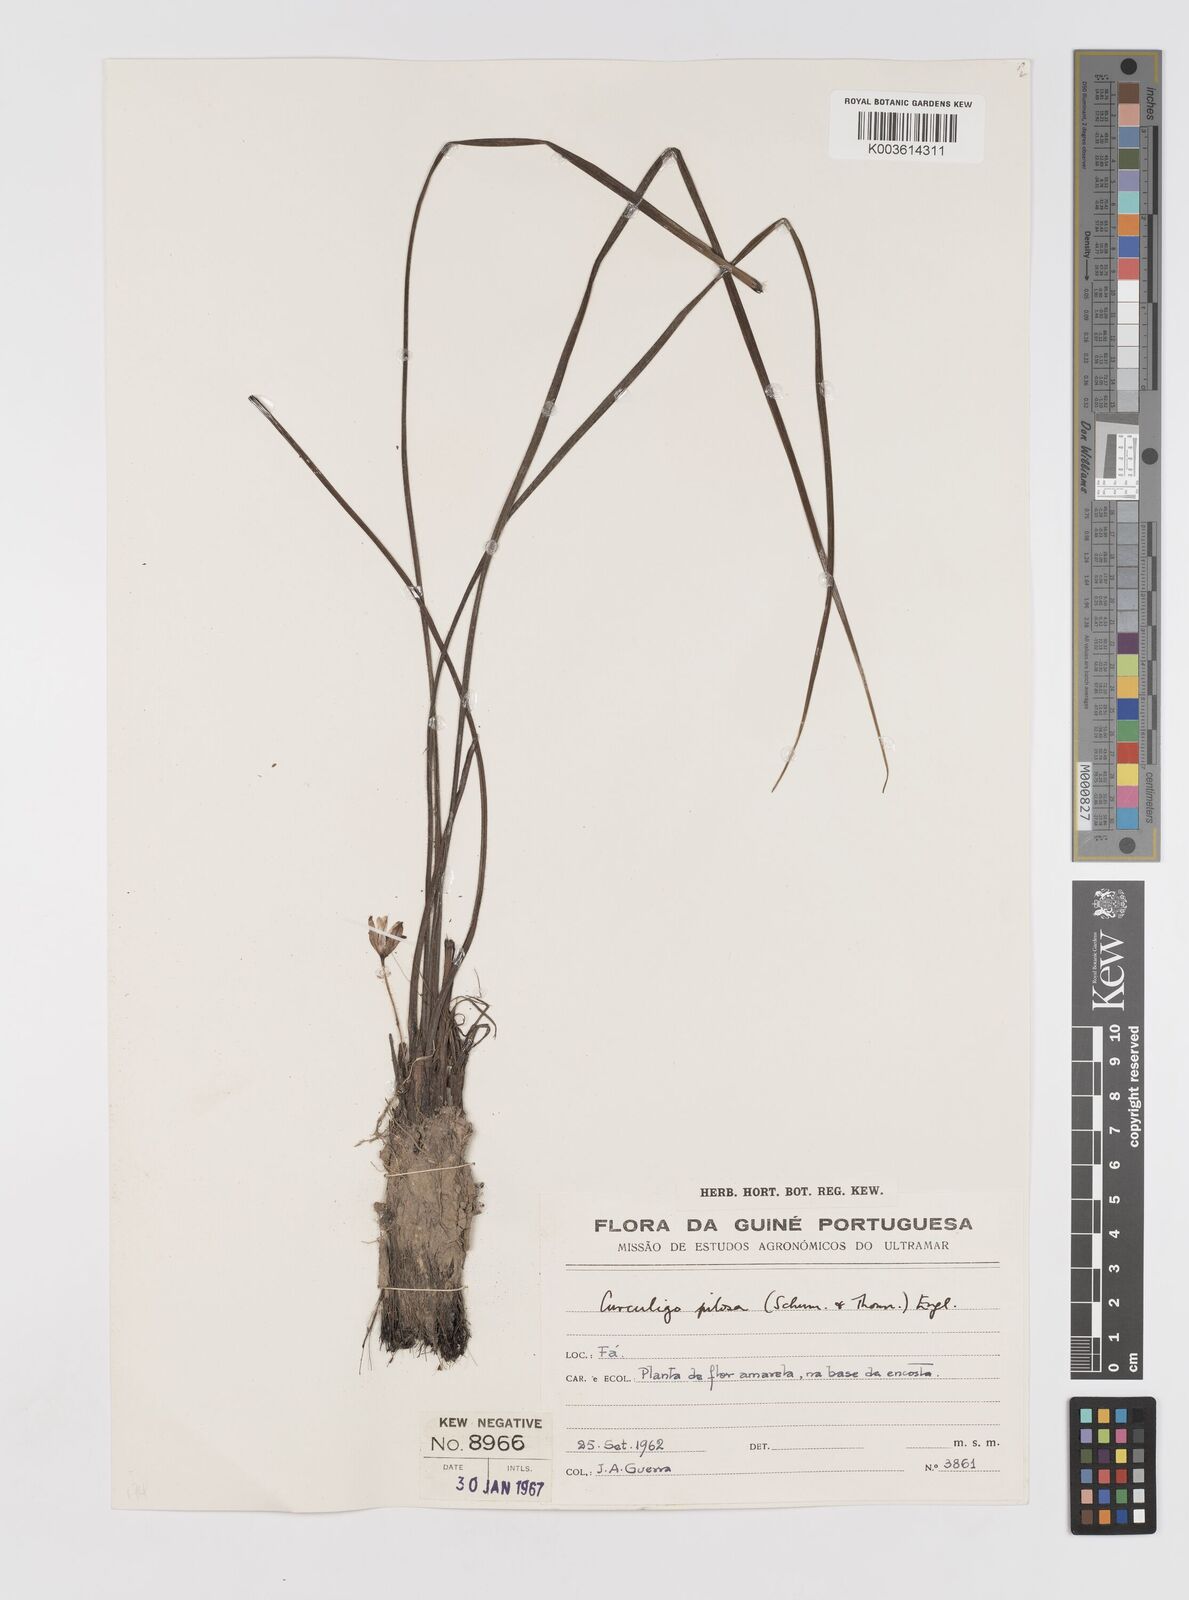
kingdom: Plantae
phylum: Tracheophyta
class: Liliopsida
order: Asparagales
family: Hypoxidaceae
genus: Curculigo
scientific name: Curculigo pilosa
